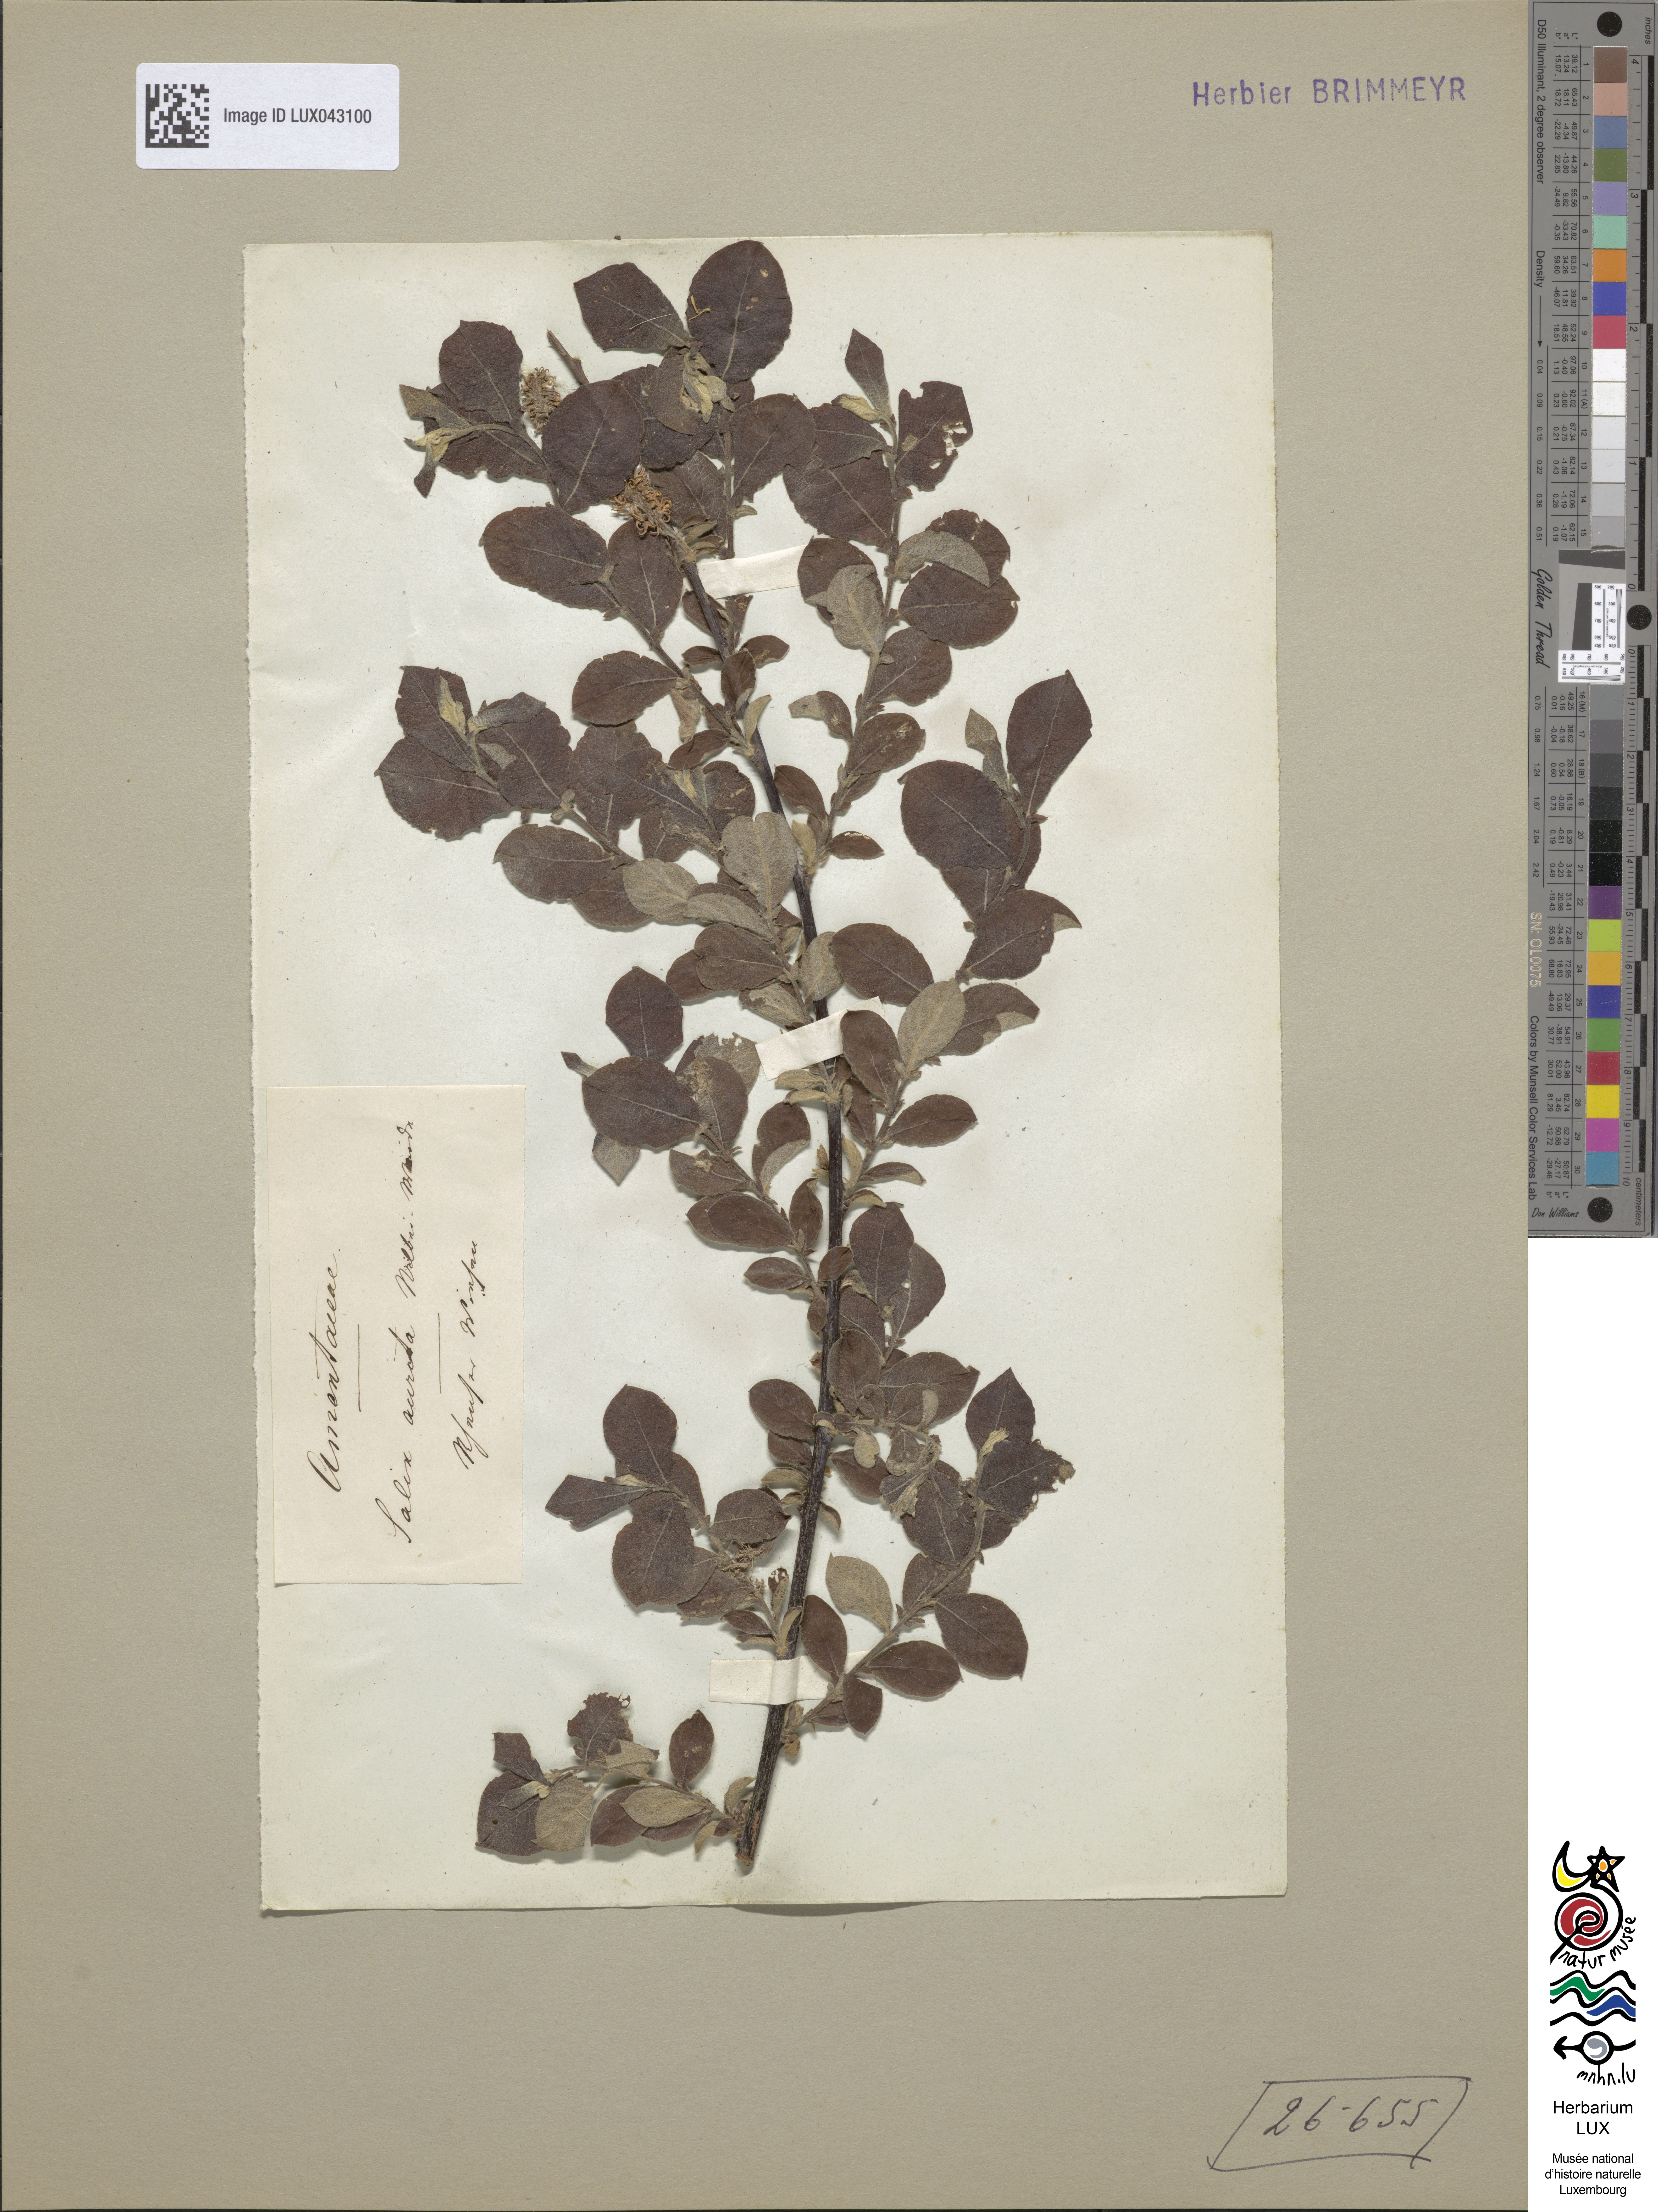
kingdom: Plantae
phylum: Tracheophyta
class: Magnoliopsida
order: Malpighiales
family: Salicaceae
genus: Salix
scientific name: Salix aurita
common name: Eared willow
